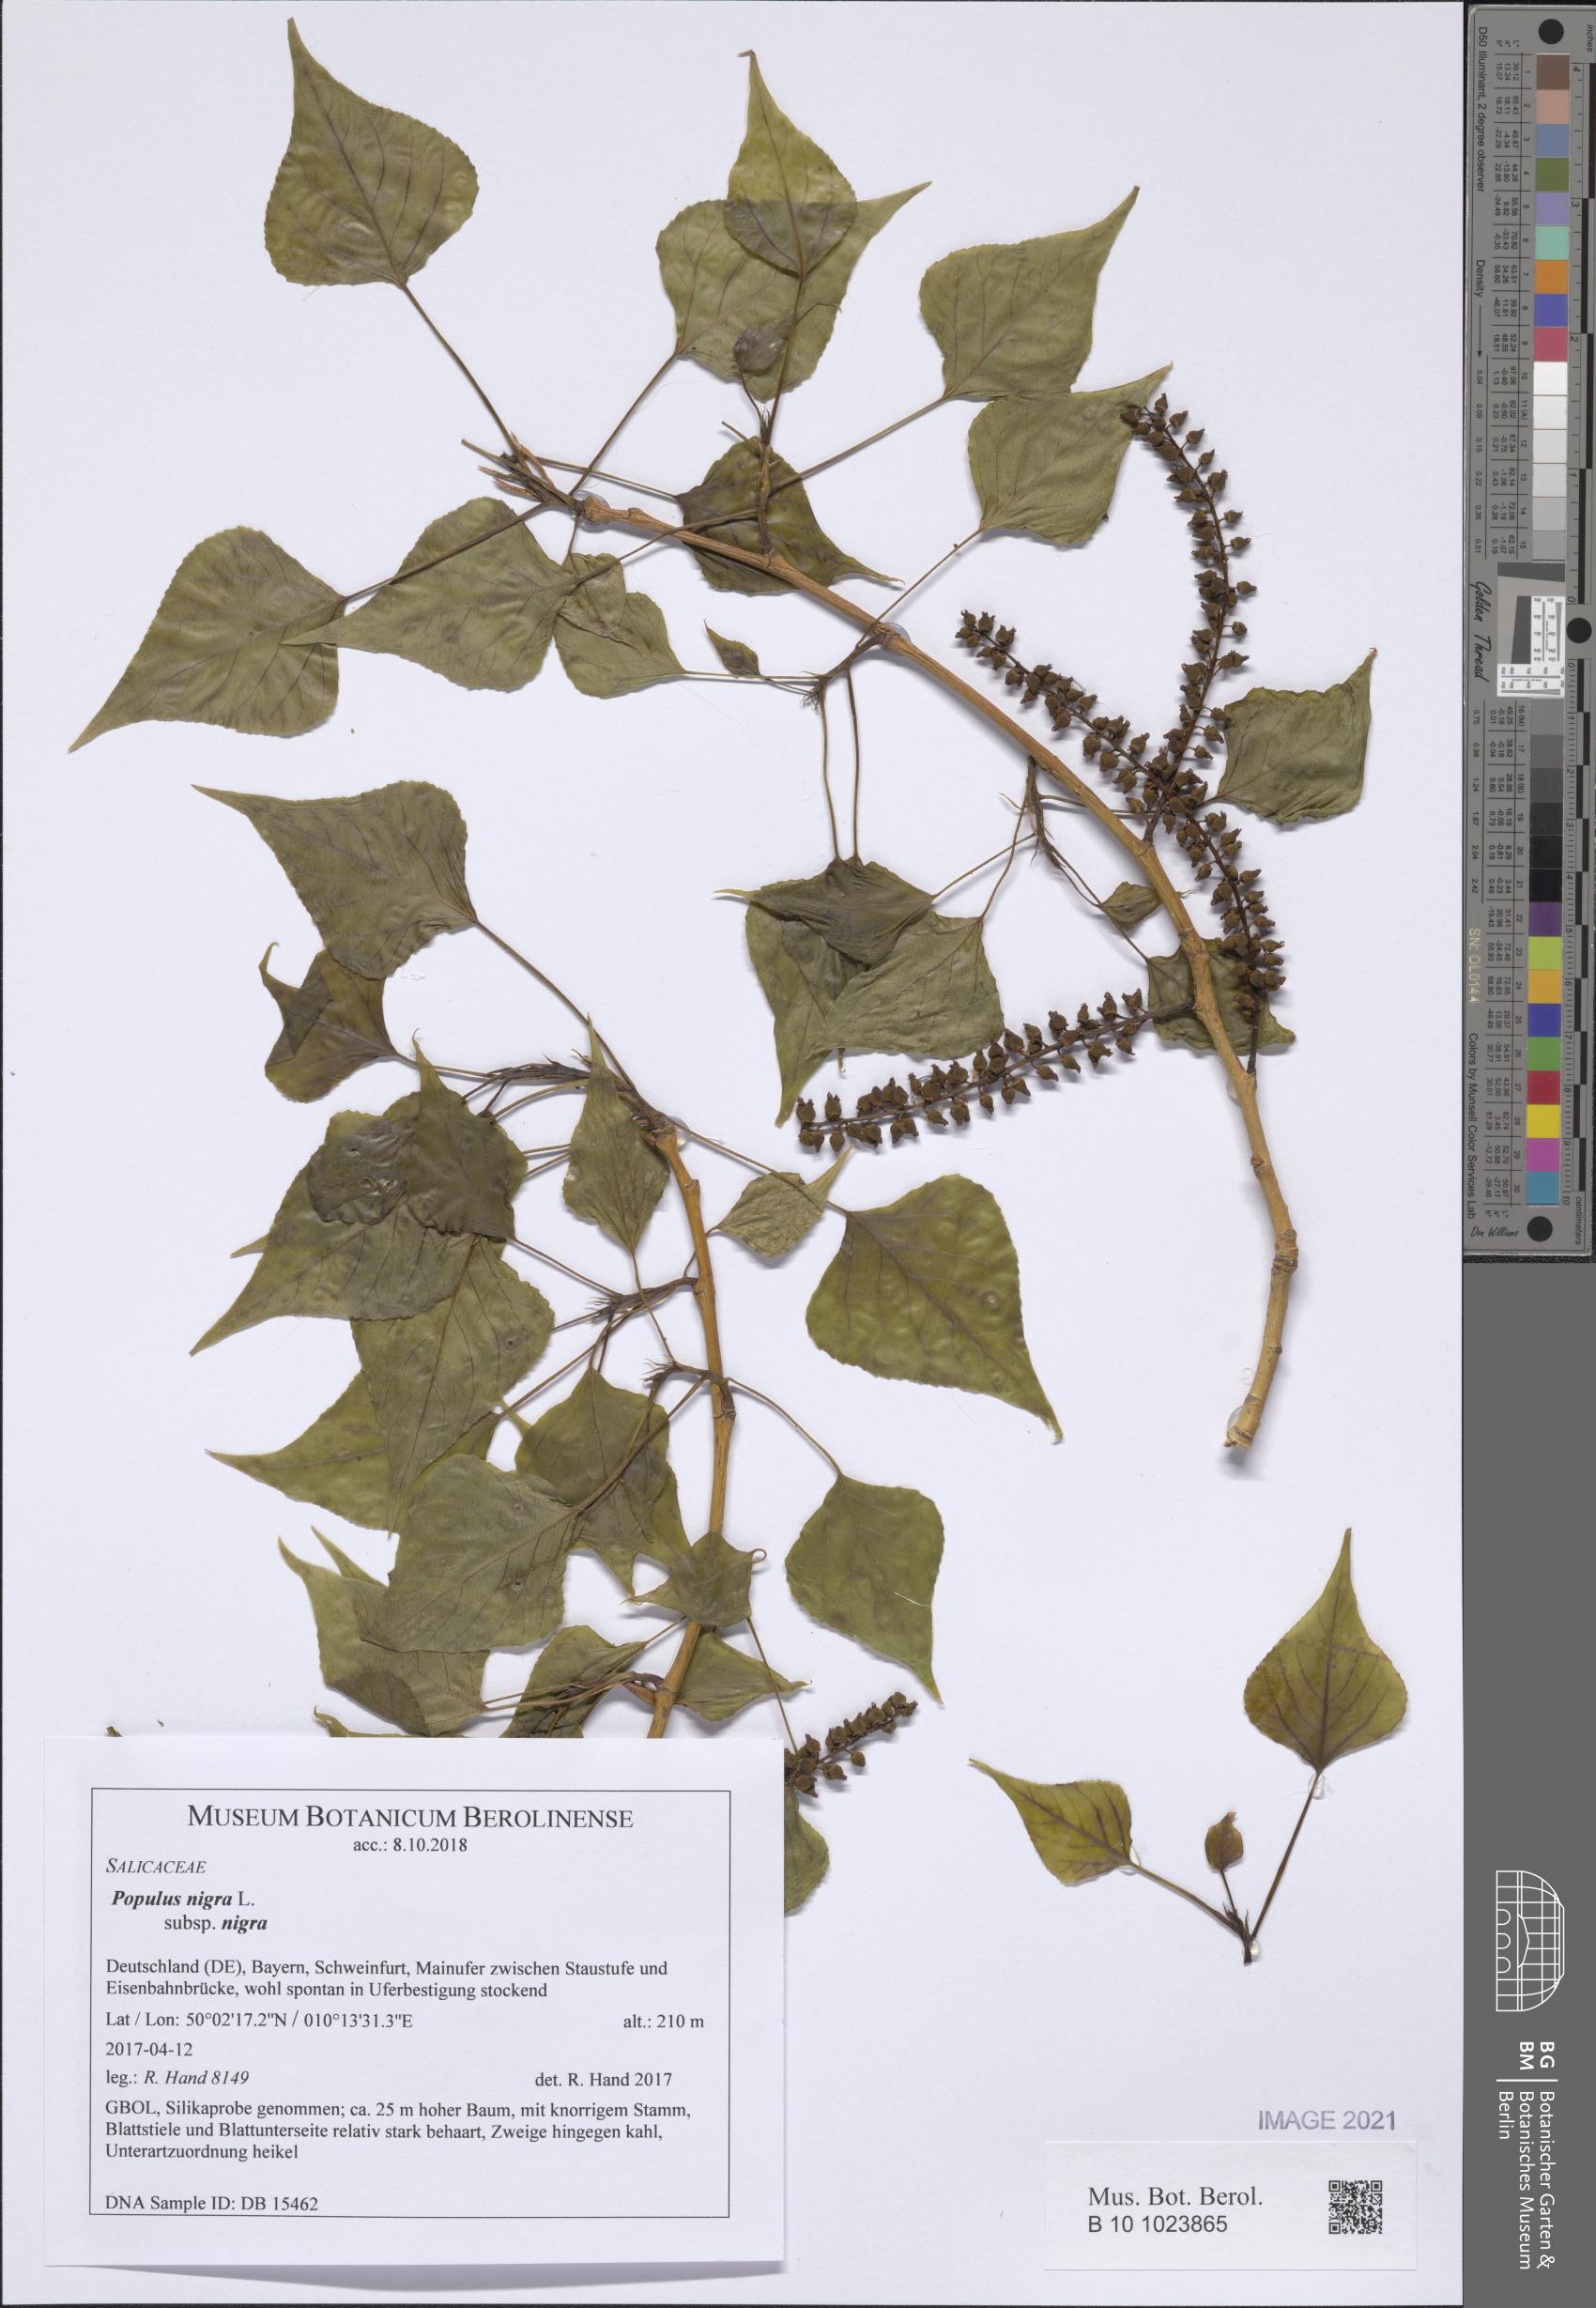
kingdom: Plantae
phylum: Tracheophyta
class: Magnoliopsida
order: Malpighiales
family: Salicaceae
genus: Populus
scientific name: Populus nigra
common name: Black poplar
